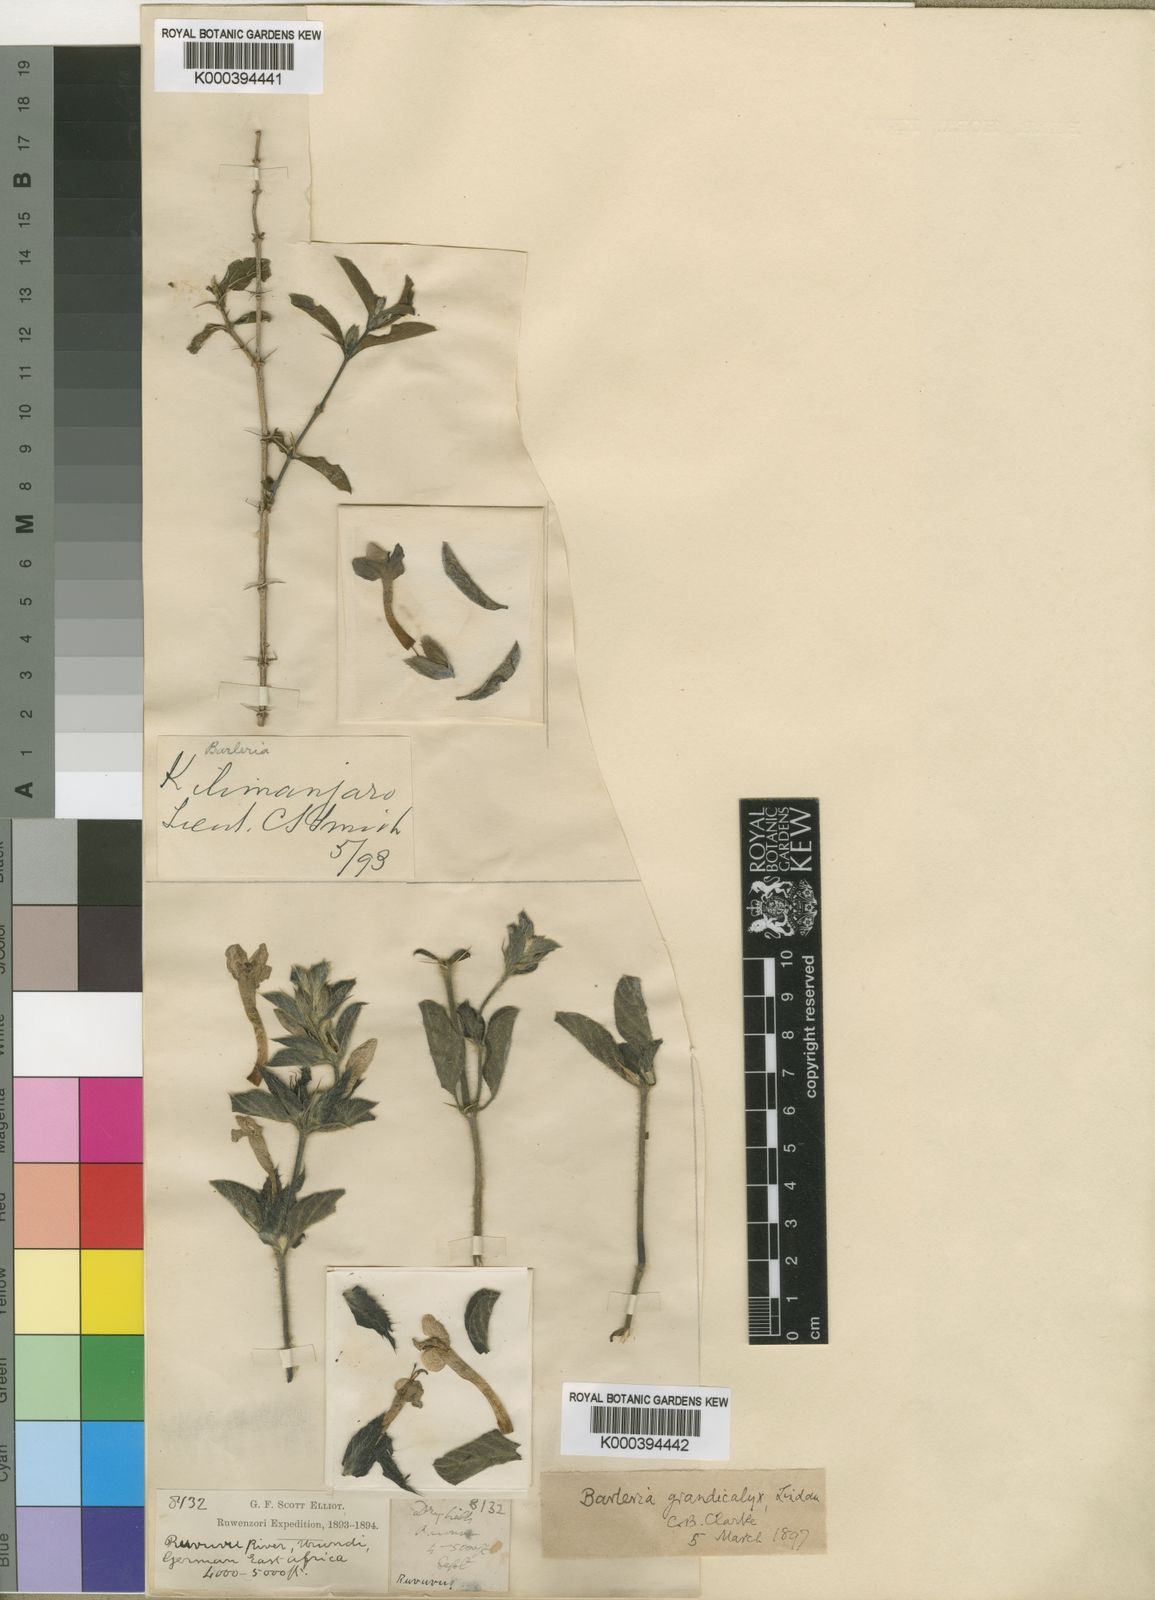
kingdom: Plantae
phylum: Tracheophyta
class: Magnoliopsida
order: Lamiales
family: Acanthaceae
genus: Barleria
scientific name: Barleria grandicalyx
